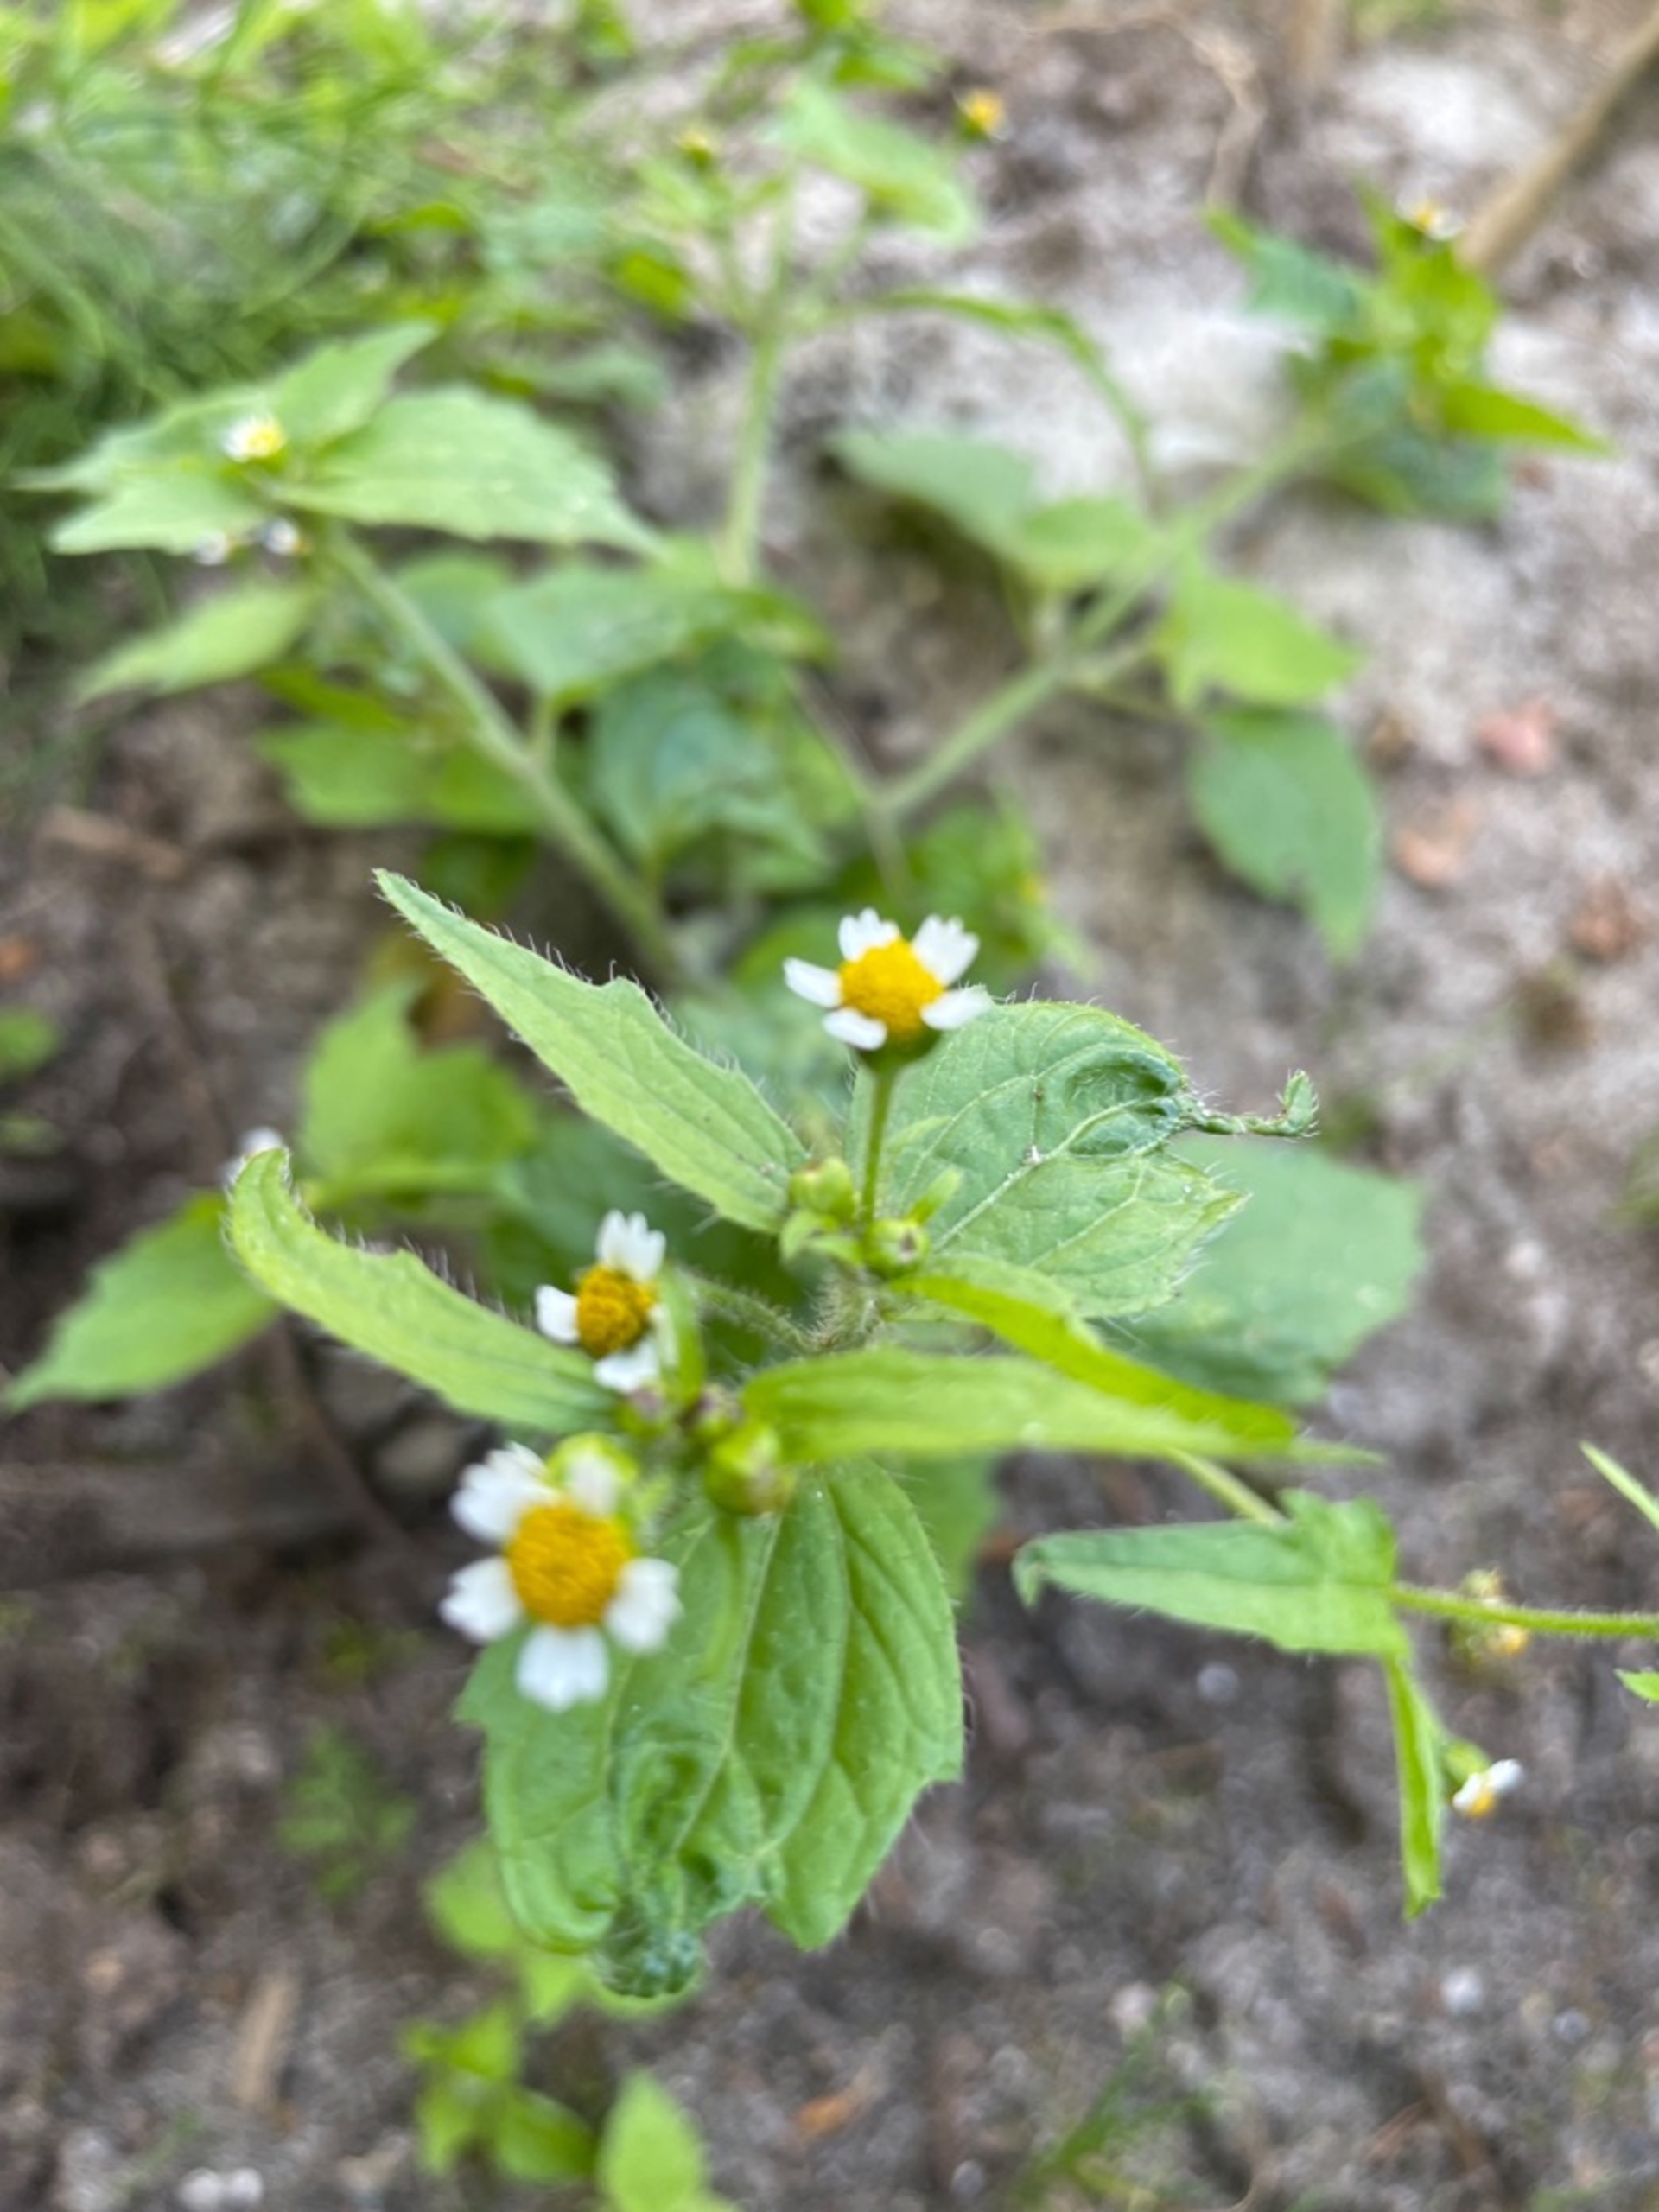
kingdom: Plantae
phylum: Tracheophyta
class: Magnoliopsida
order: Asterales
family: Asteraceae
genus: Galinsoga
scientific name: Galinsoga quadriradiata
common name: Kirtel-kortstråle
